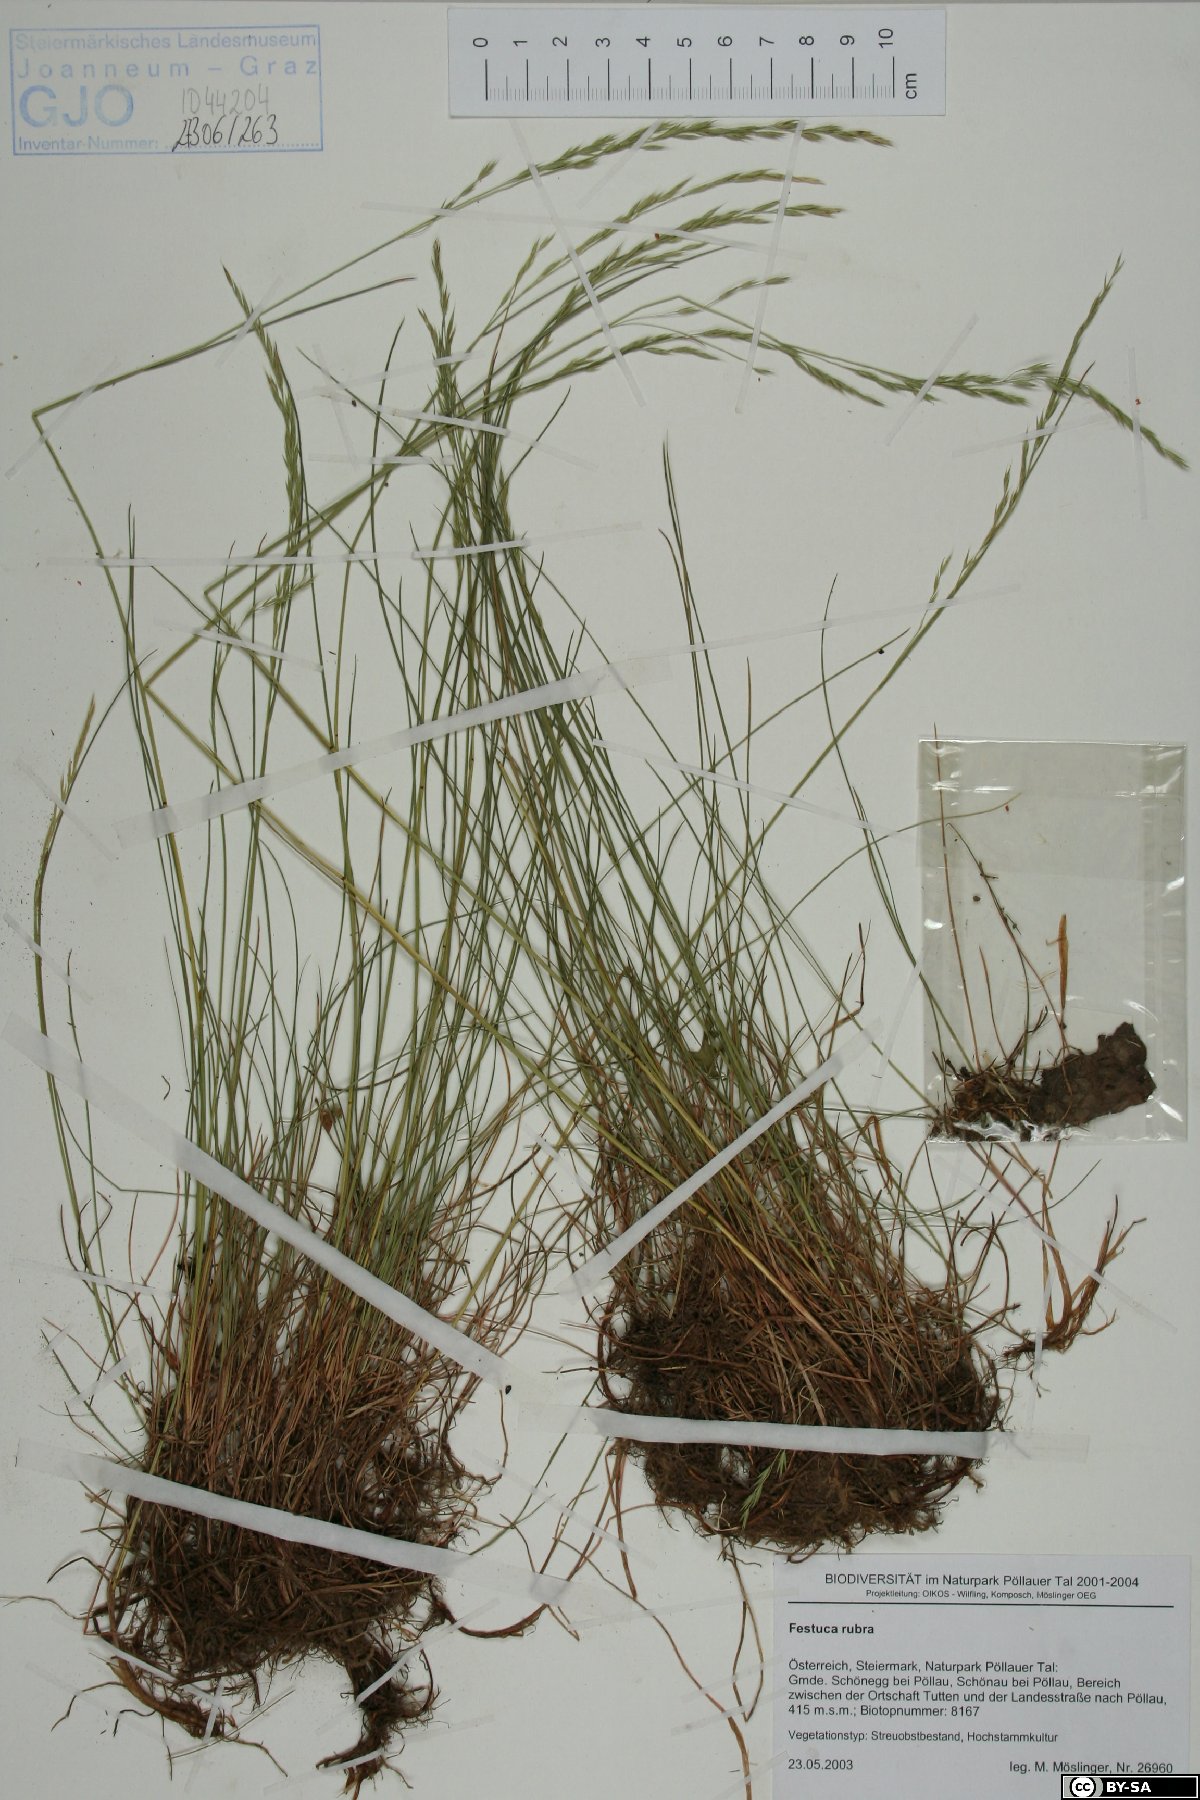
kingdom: Plantae
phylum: Tracheophyta
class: Liliopsida
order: Poales
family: Poaceae
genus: Festuca
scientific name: Festuca rubra
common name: Red fescue
